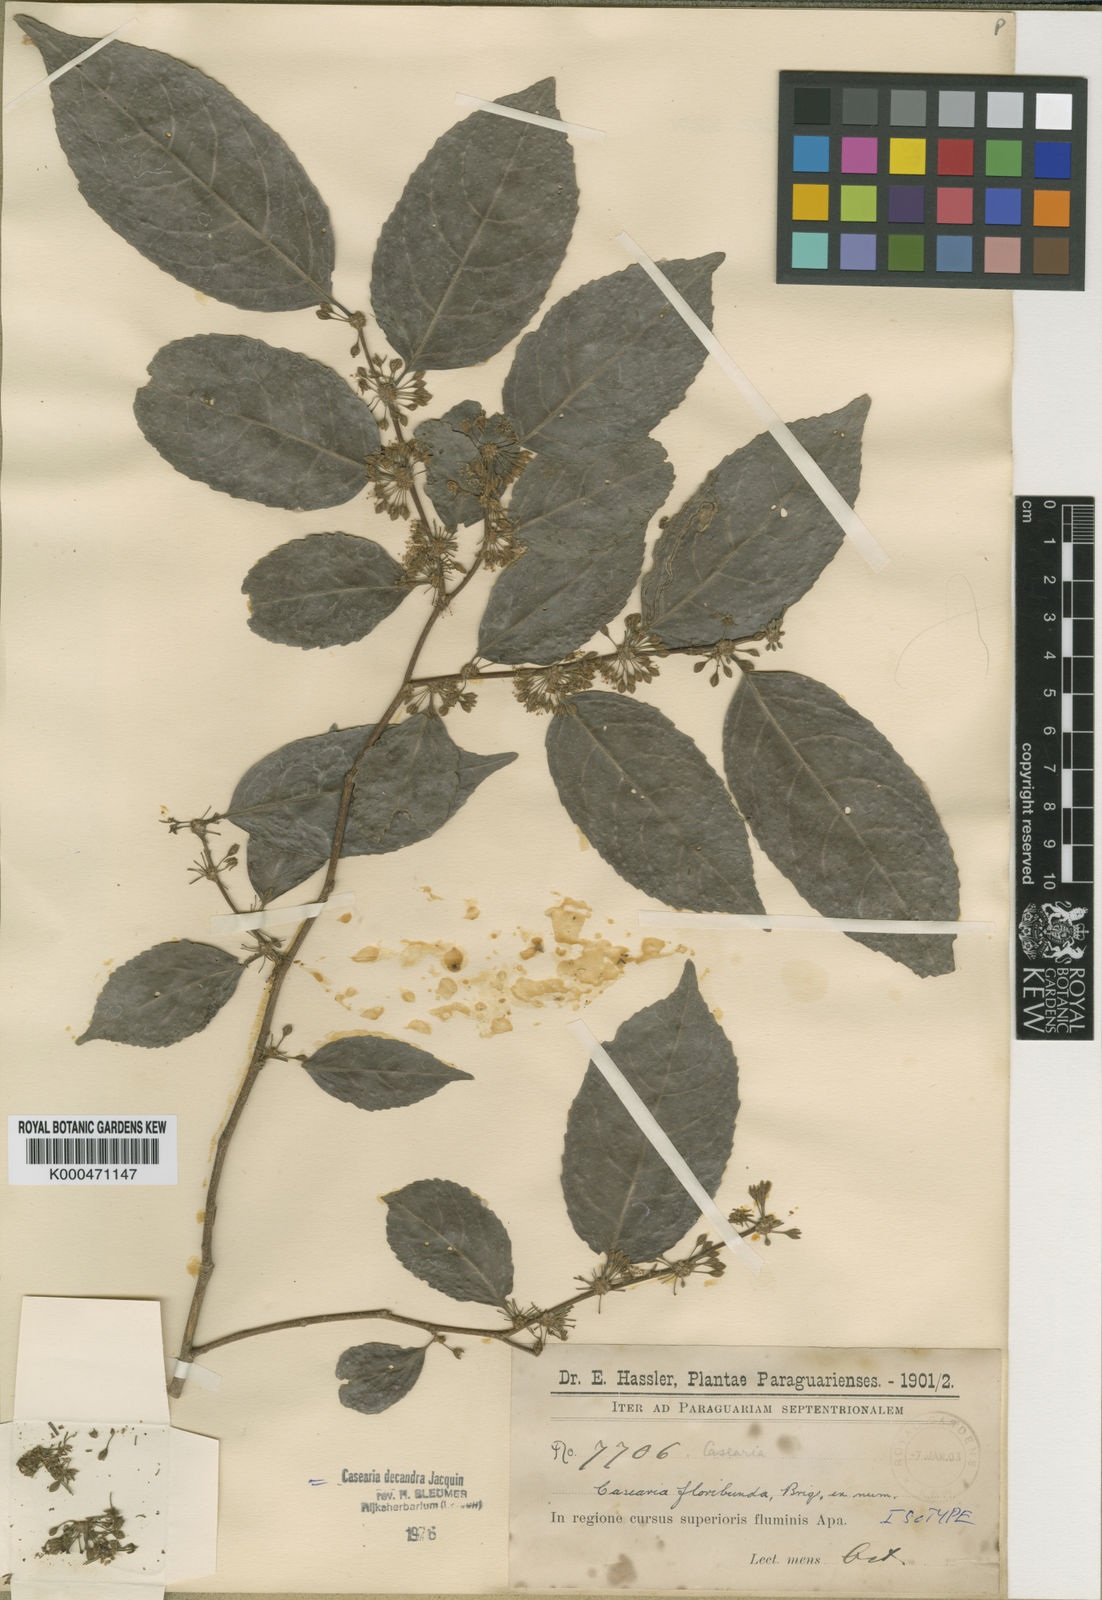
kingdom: Plantae
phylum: Tracheophyta
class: Magnoliopsida
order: Malpighiales
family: Salicaceae
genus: Casearia
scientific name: Casearia decandra
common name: Crack open
